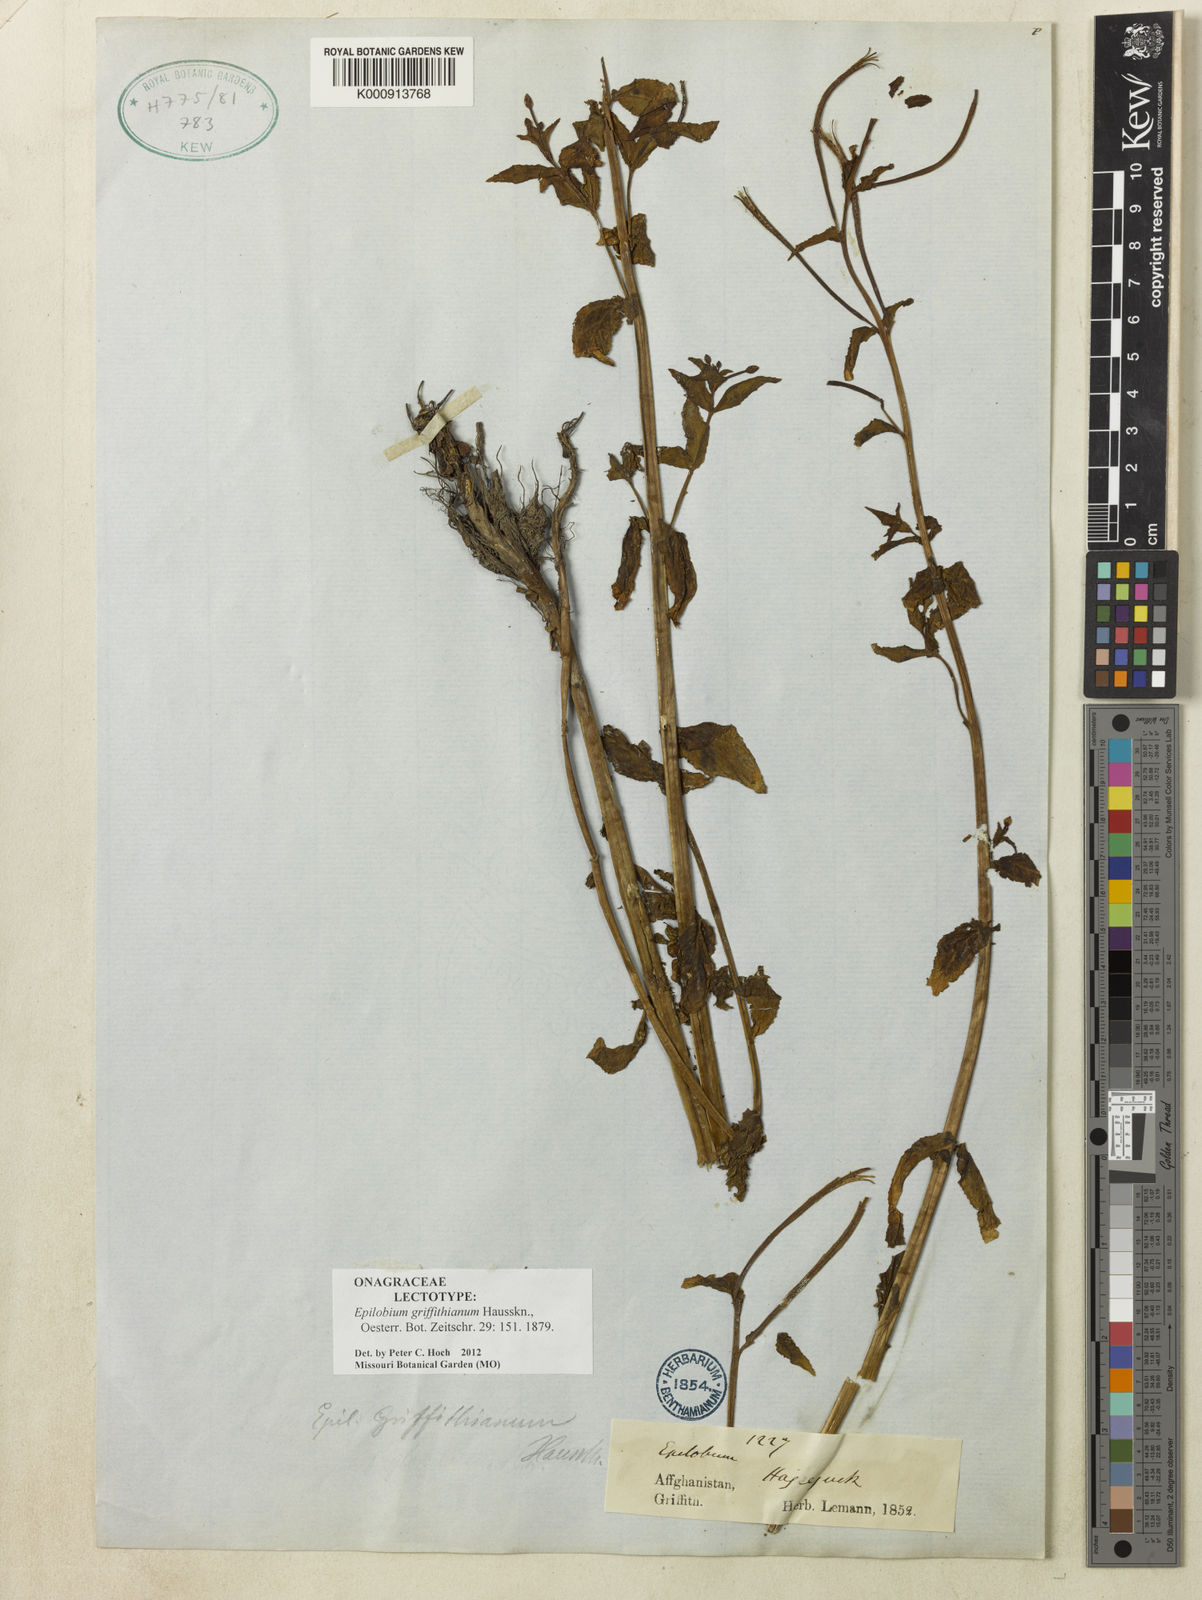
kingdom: Plantae
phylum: Tracheophyta
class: Magnoliopsida
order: Myrtales
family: Onagraceae
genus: Epilobium
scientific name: Epilobium griffithianum
